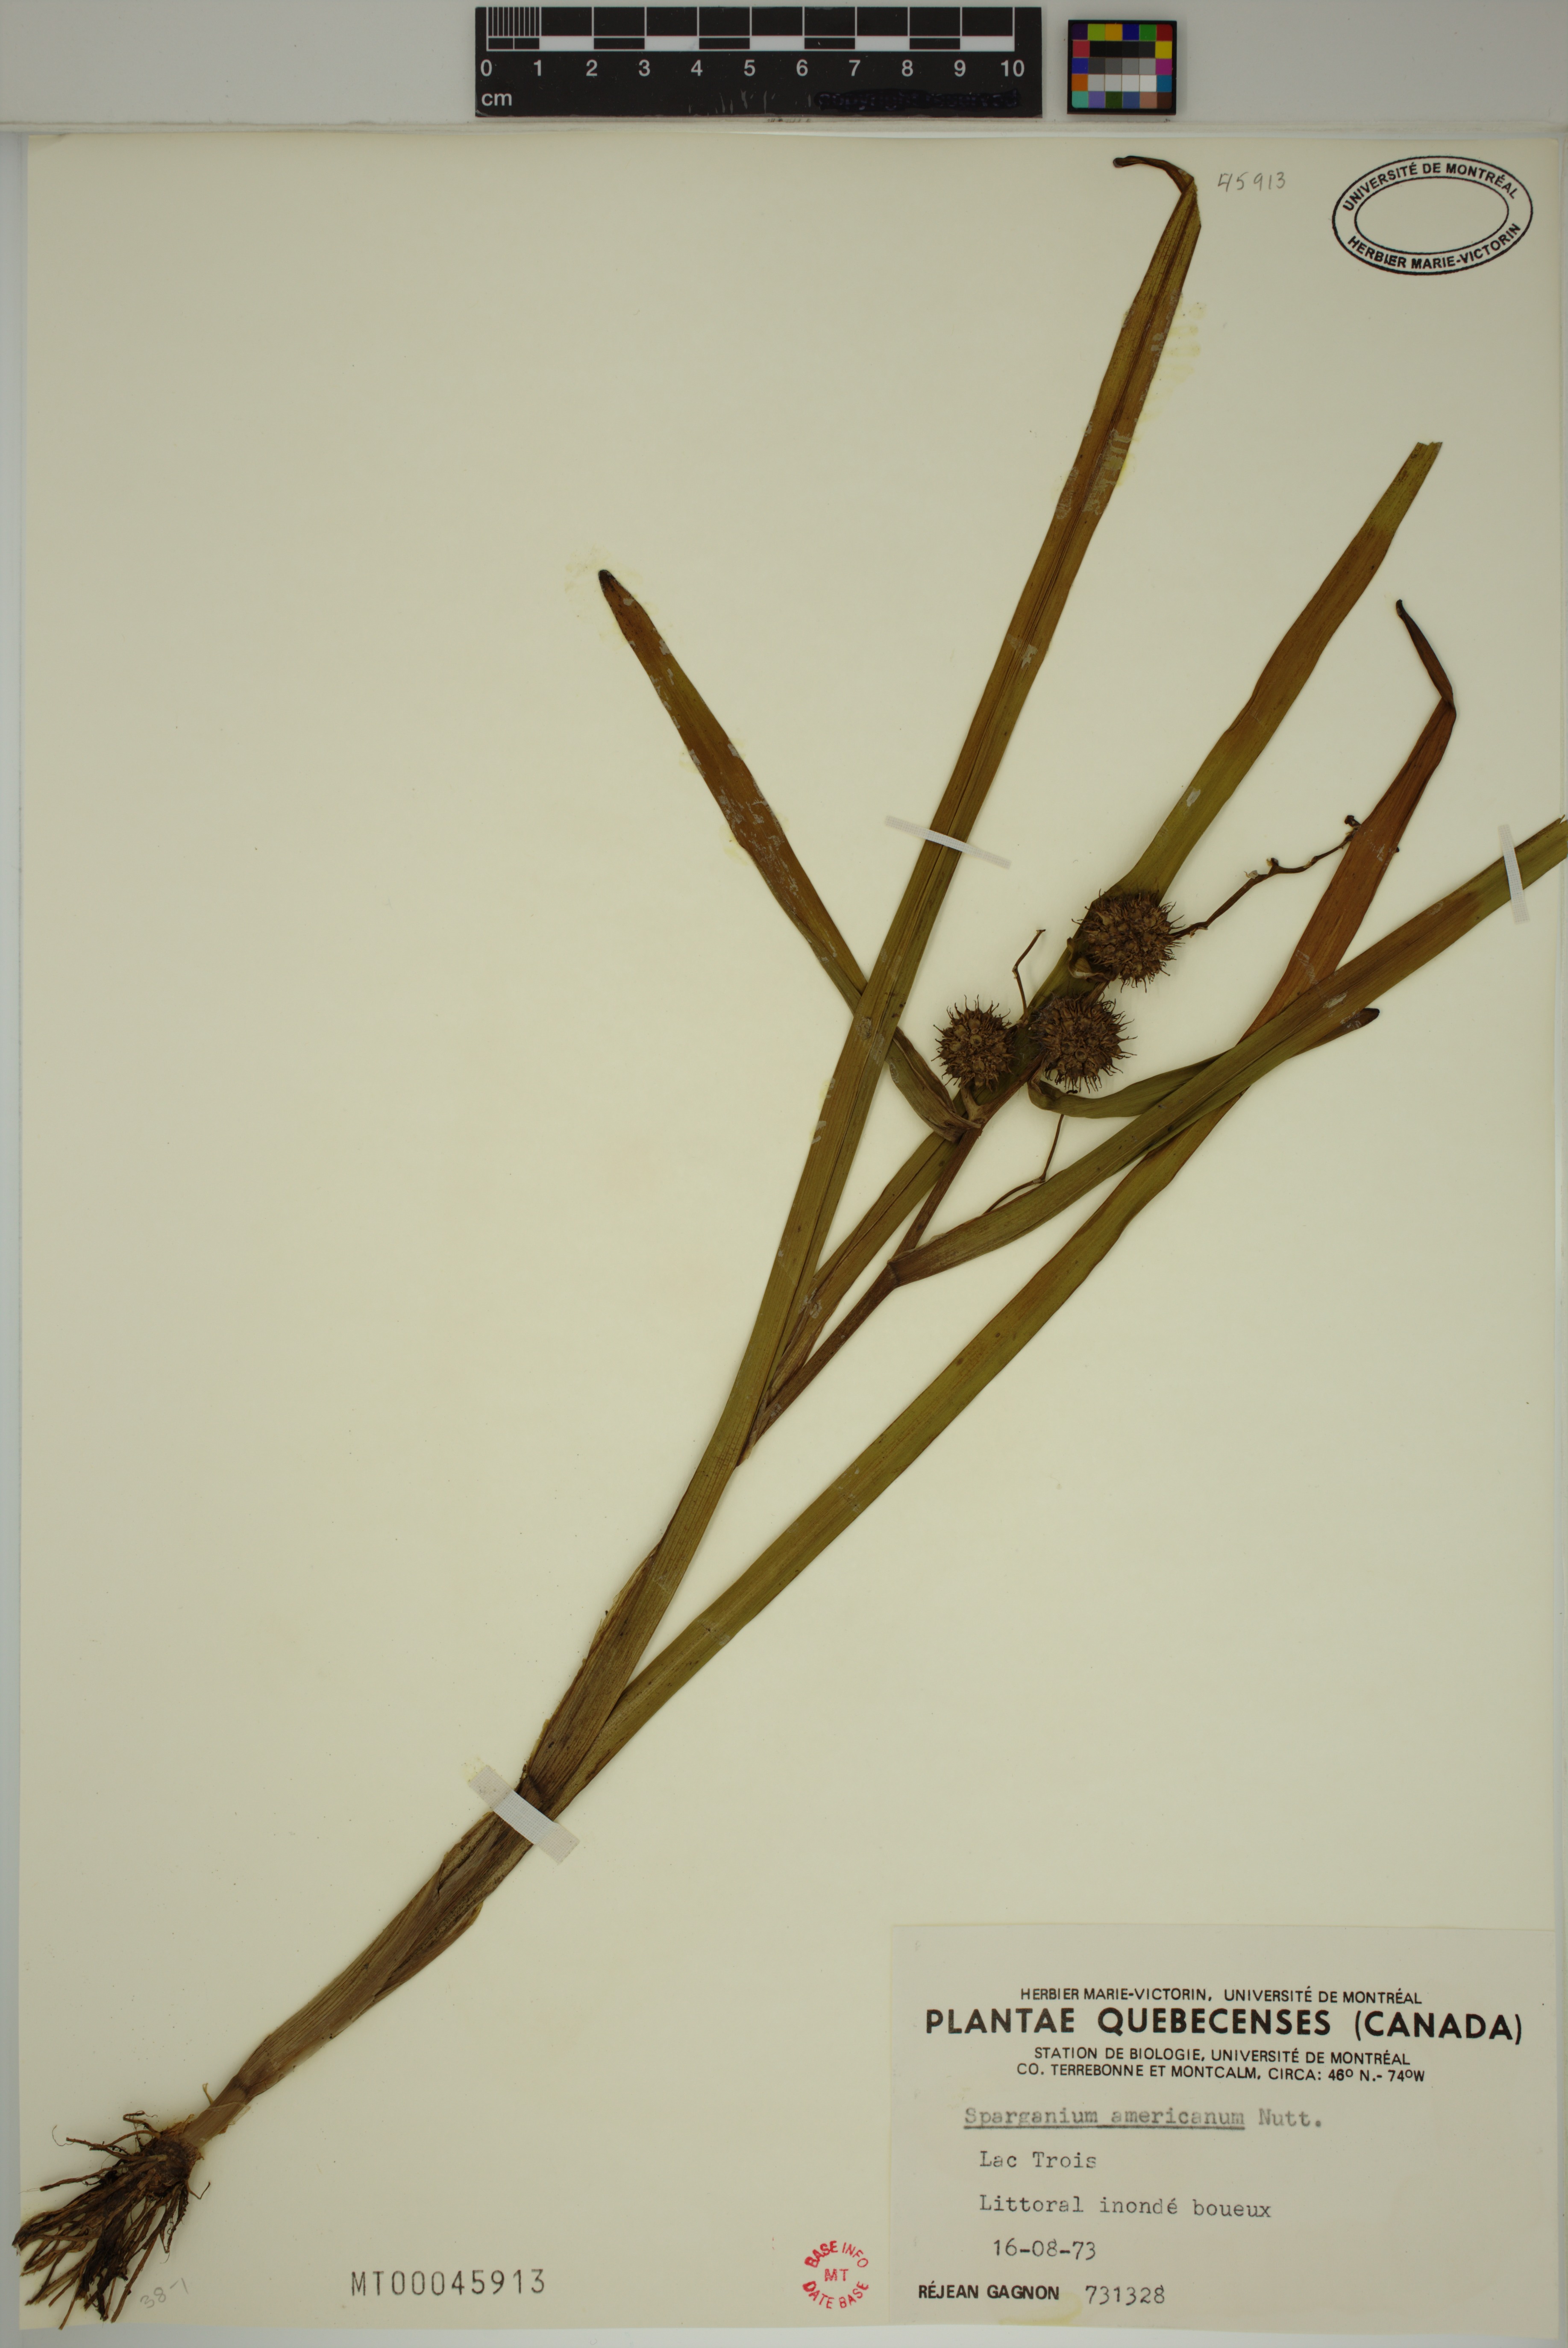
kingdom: Plantae
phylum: Tracheophyta
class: Liliopsida
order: Poales
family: Typhaceae
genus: Sparganium
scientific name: Sparganium americanum
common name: American burreed
